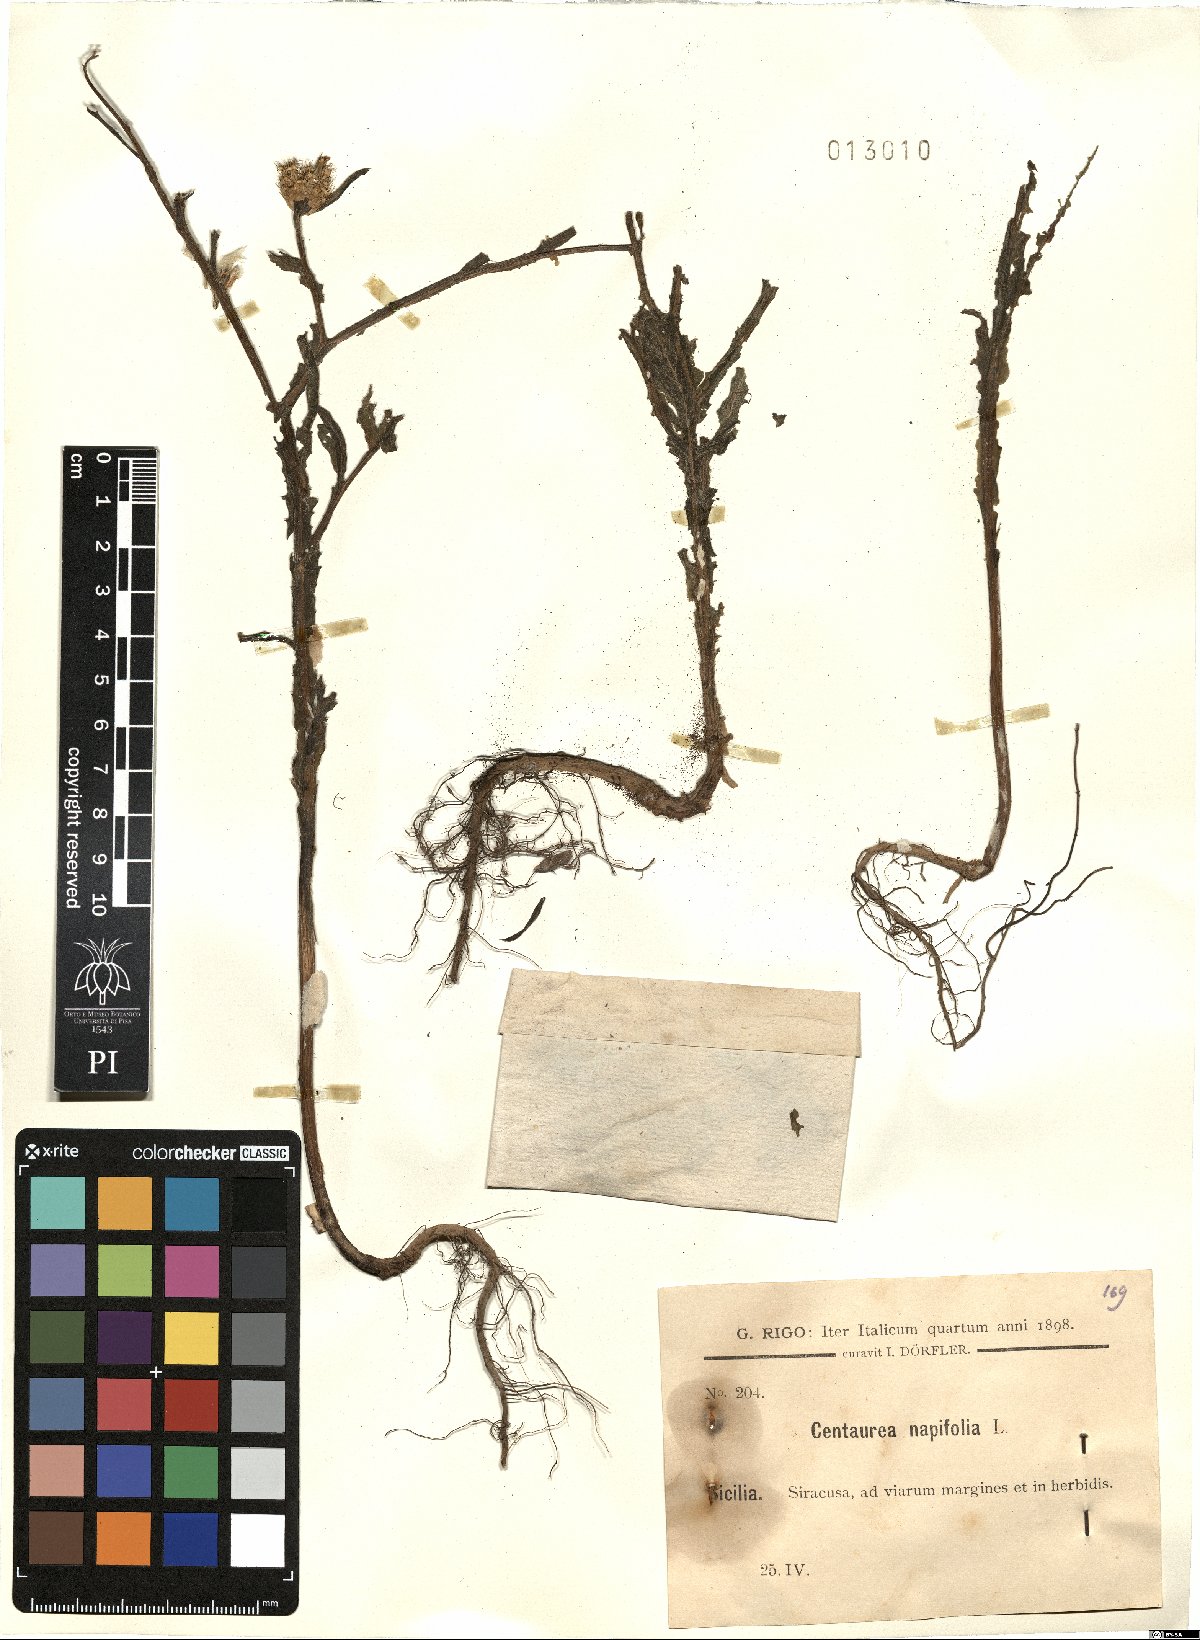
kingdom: Plantae
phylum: Tracheophyta
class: Magnoliopsida
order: Asterales
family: Asteraceae
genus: Centaurea
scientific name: Centaurea napifolia
